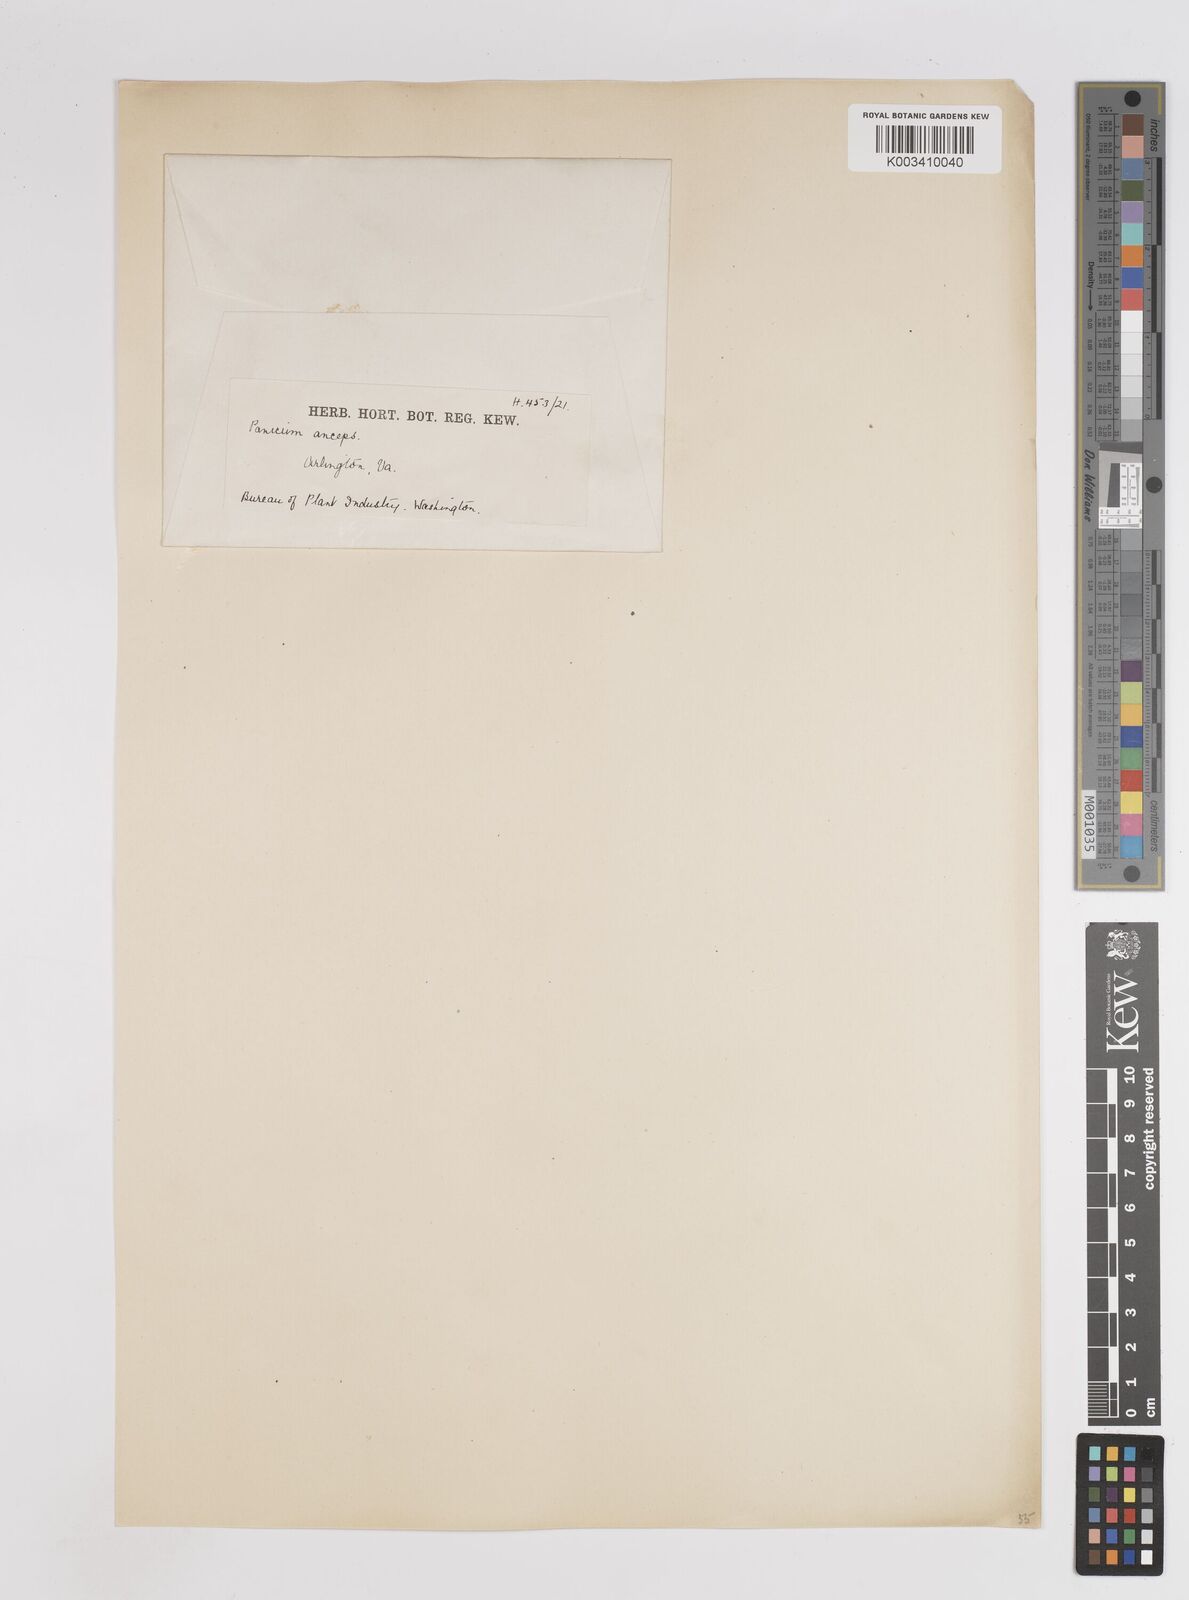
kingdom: Plantae
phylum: Tracheophyta
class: Liliopsida
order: Poales
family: Poaceae
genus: Coleataenia
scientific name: Coleataenia anceps
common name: Beaked panic grass
